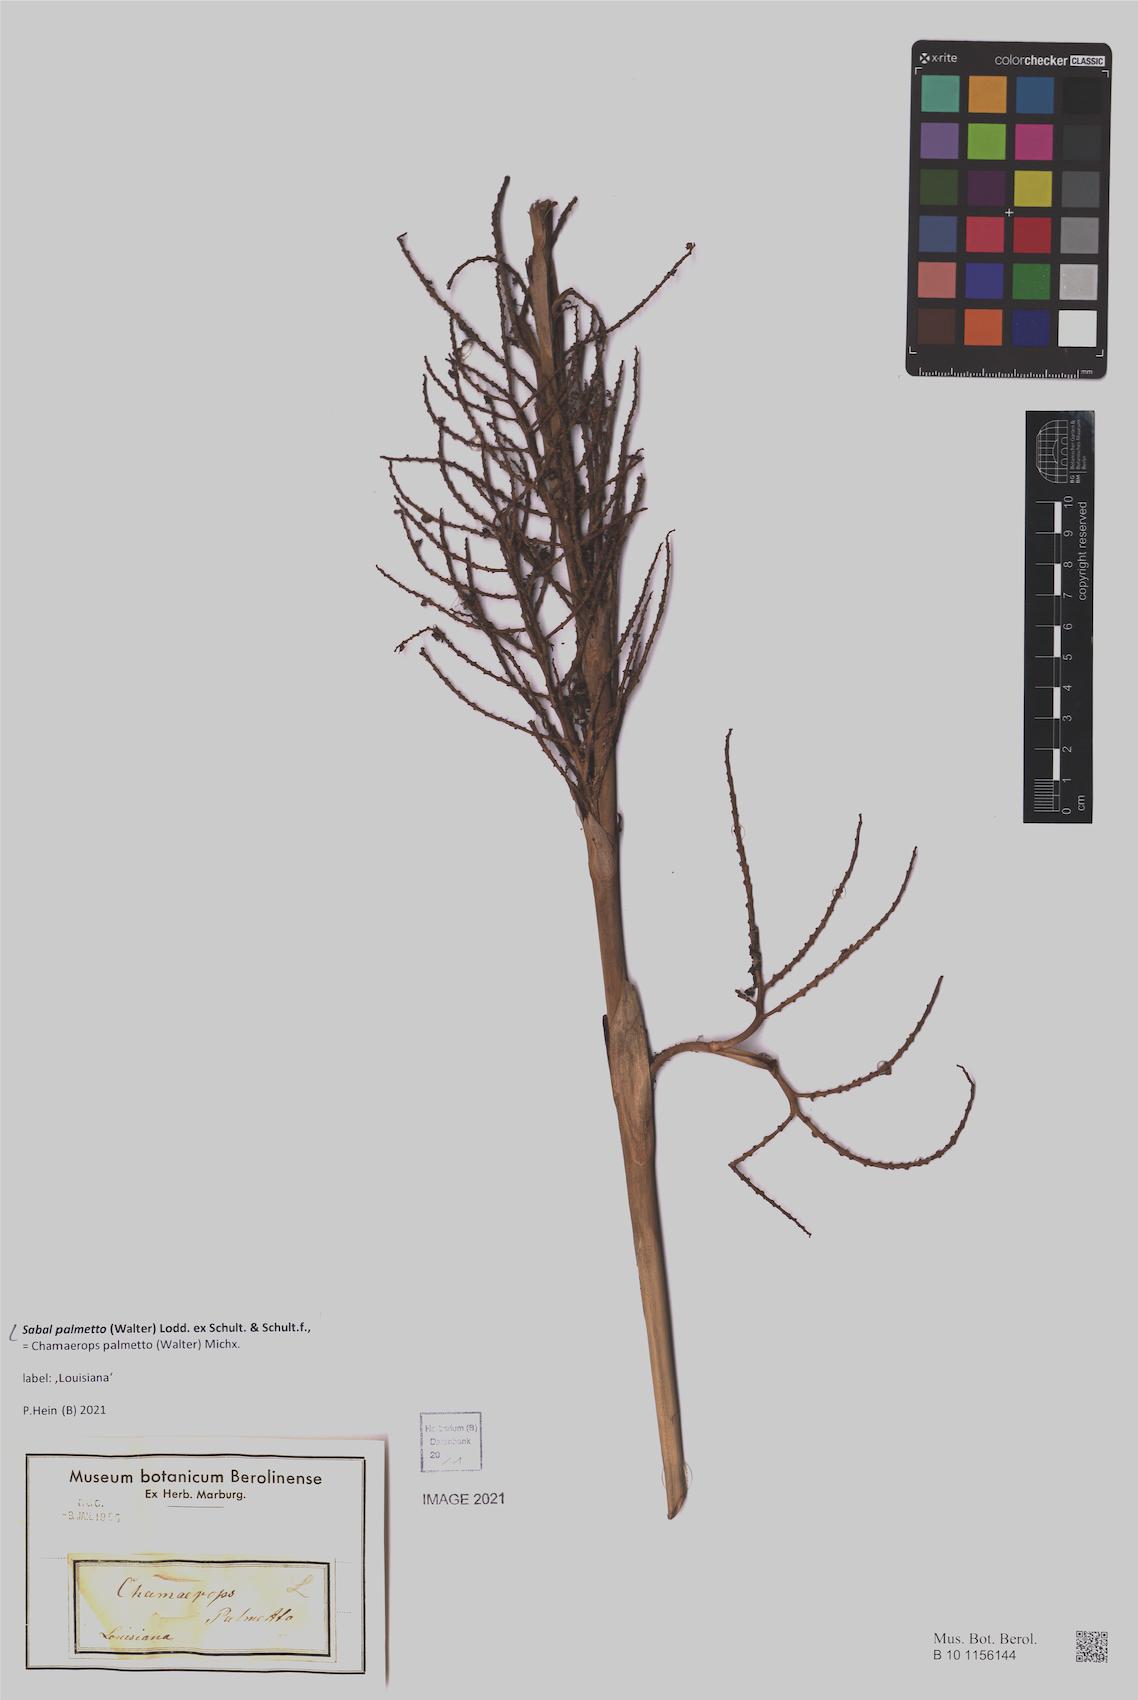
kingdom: Plantae
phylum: Tracheophyta
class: Liliopsida
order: Arecales
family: Arecaceae
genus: Sabal
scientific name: Sabal palmetto
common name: Blue palmetto
